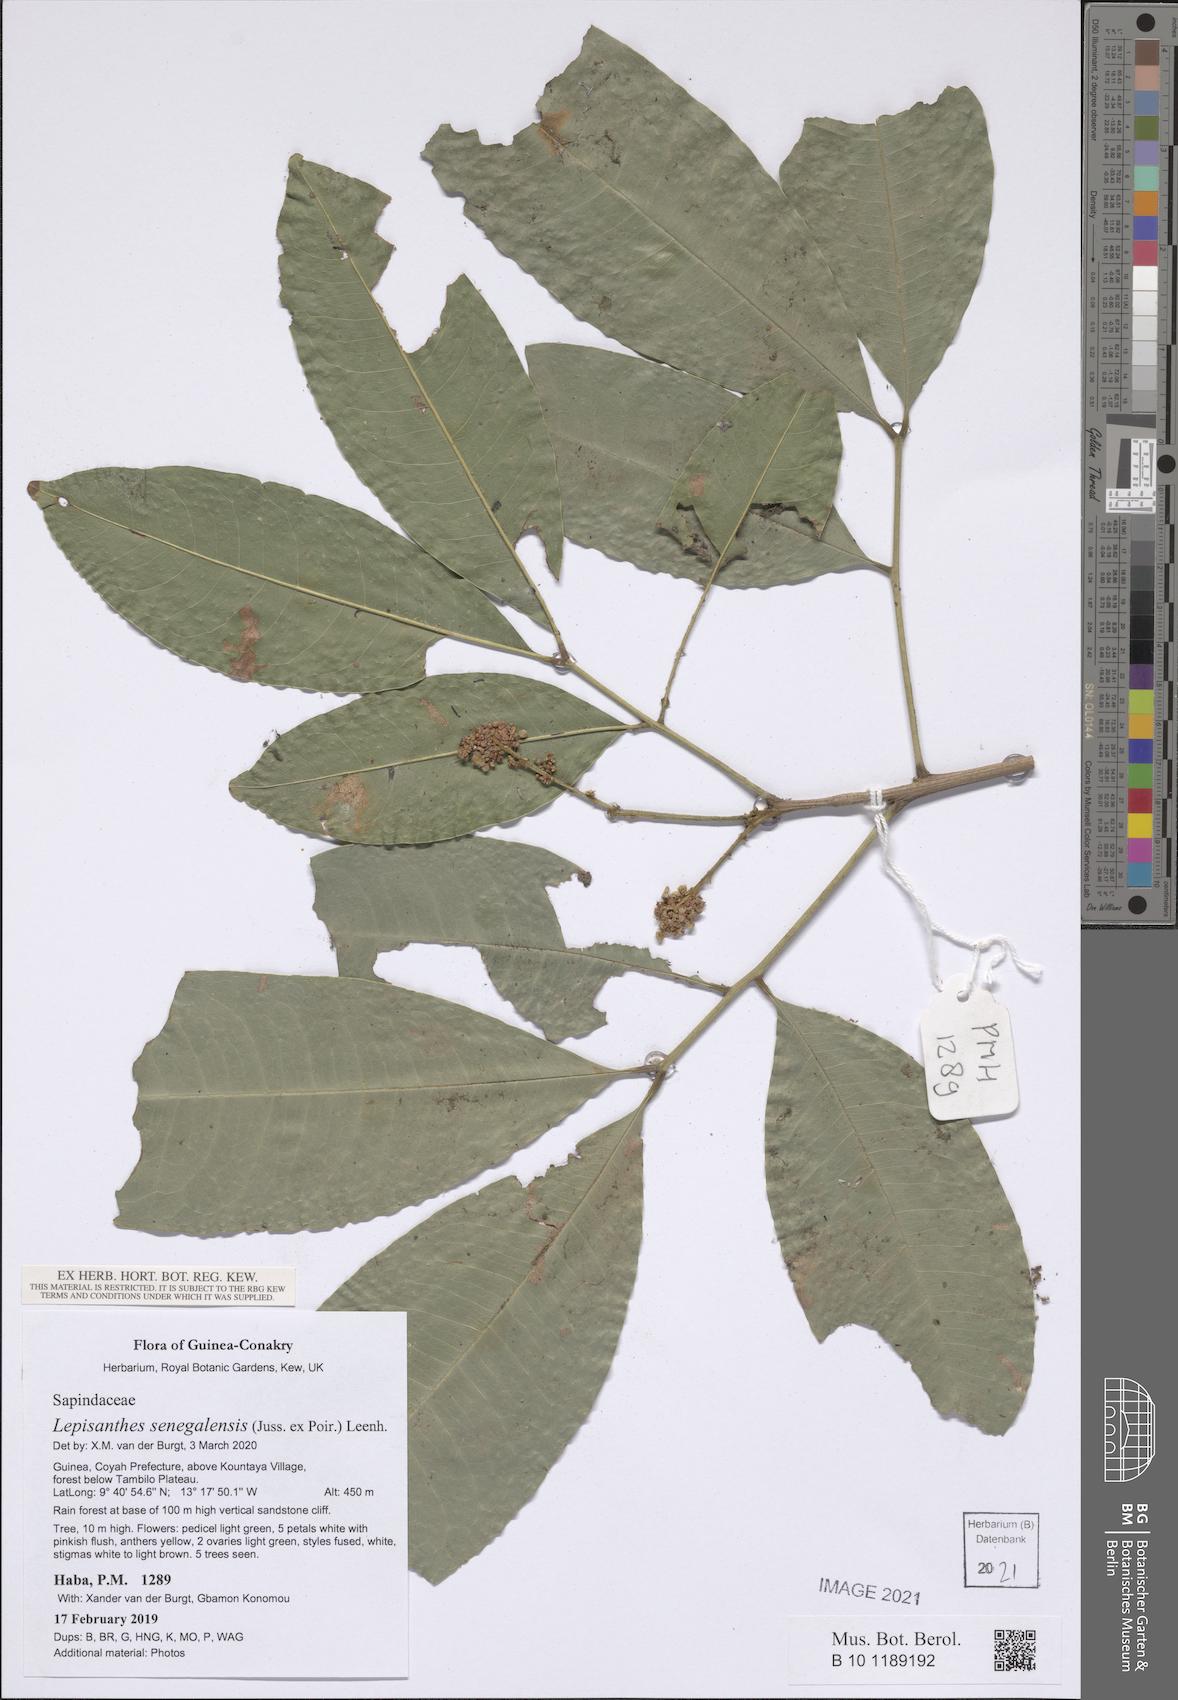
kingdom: Plantae
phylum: Tracheophyta
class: Magnoliopsida
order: Sapindales
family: Sapindaceae
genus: Lepisanthes
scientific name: Lepisanthes senegalensis
